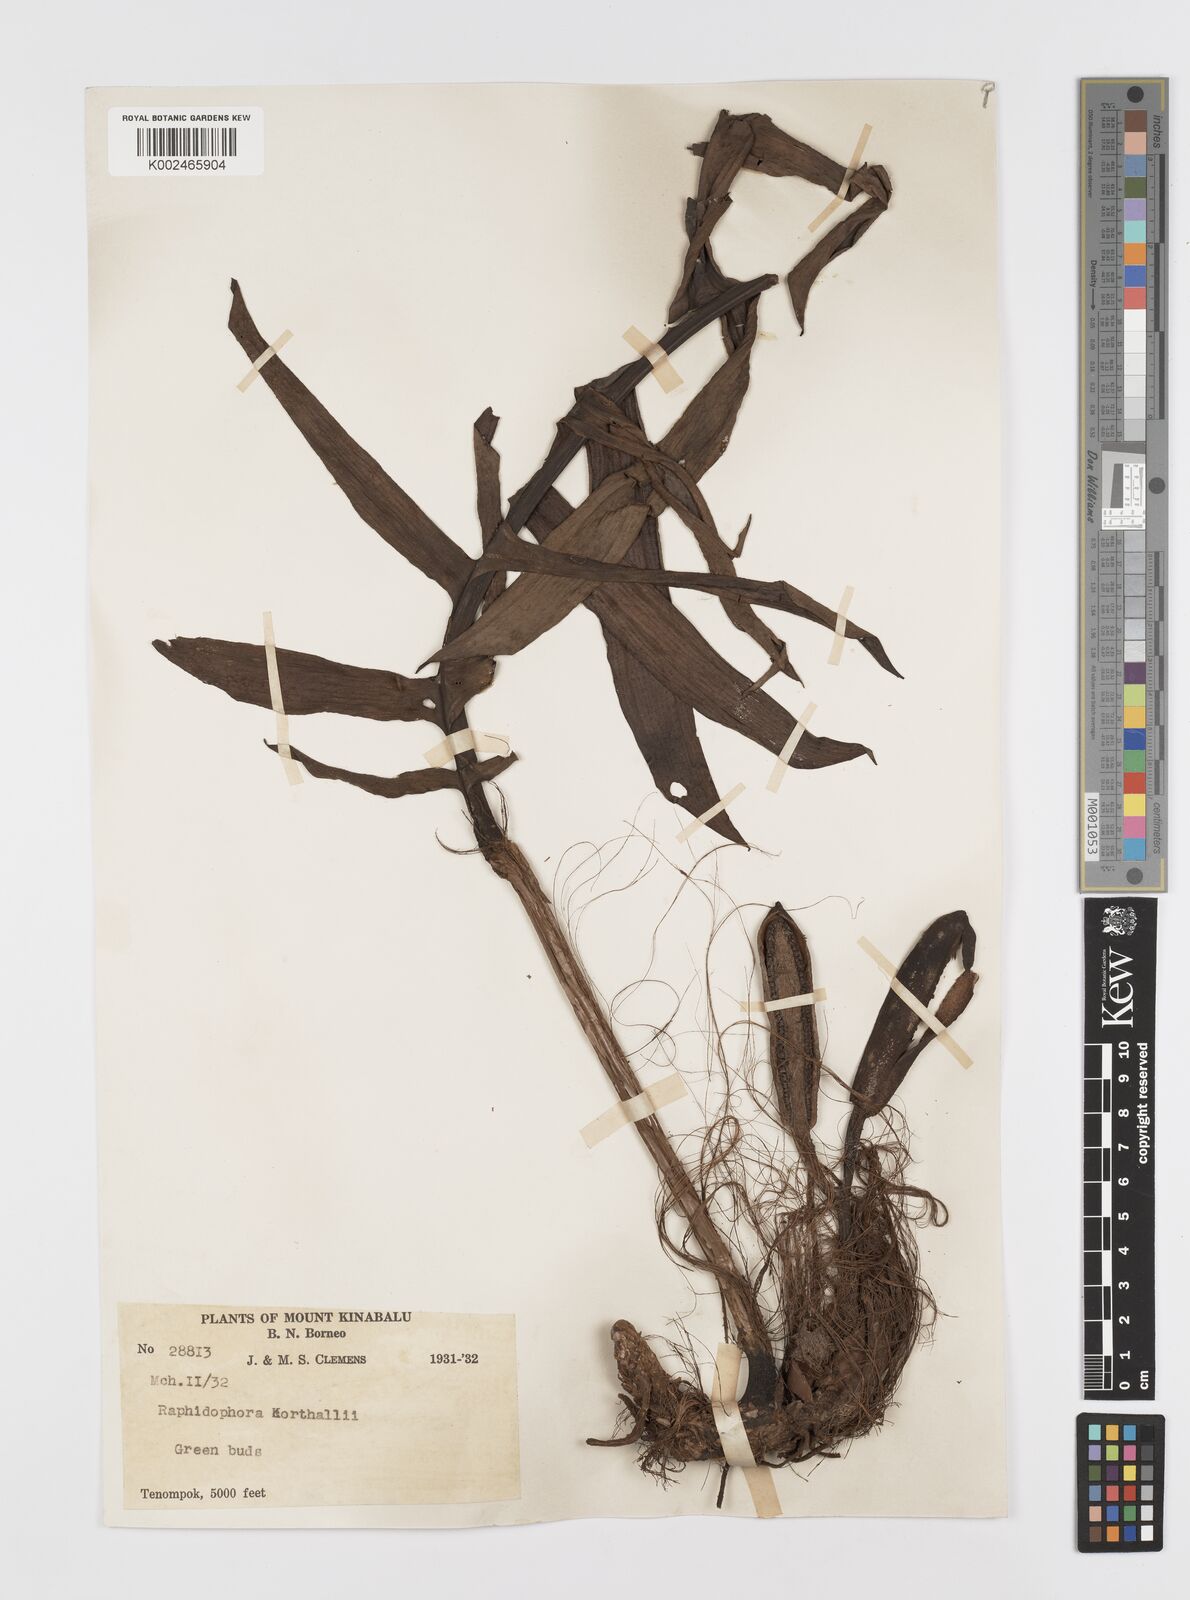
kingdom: Plantae
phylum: Tracheophyta
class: Liliopsida
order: Alismatales
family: Araceae
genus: Rhaphidophora
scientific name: Rhaphidophora korthalsii
